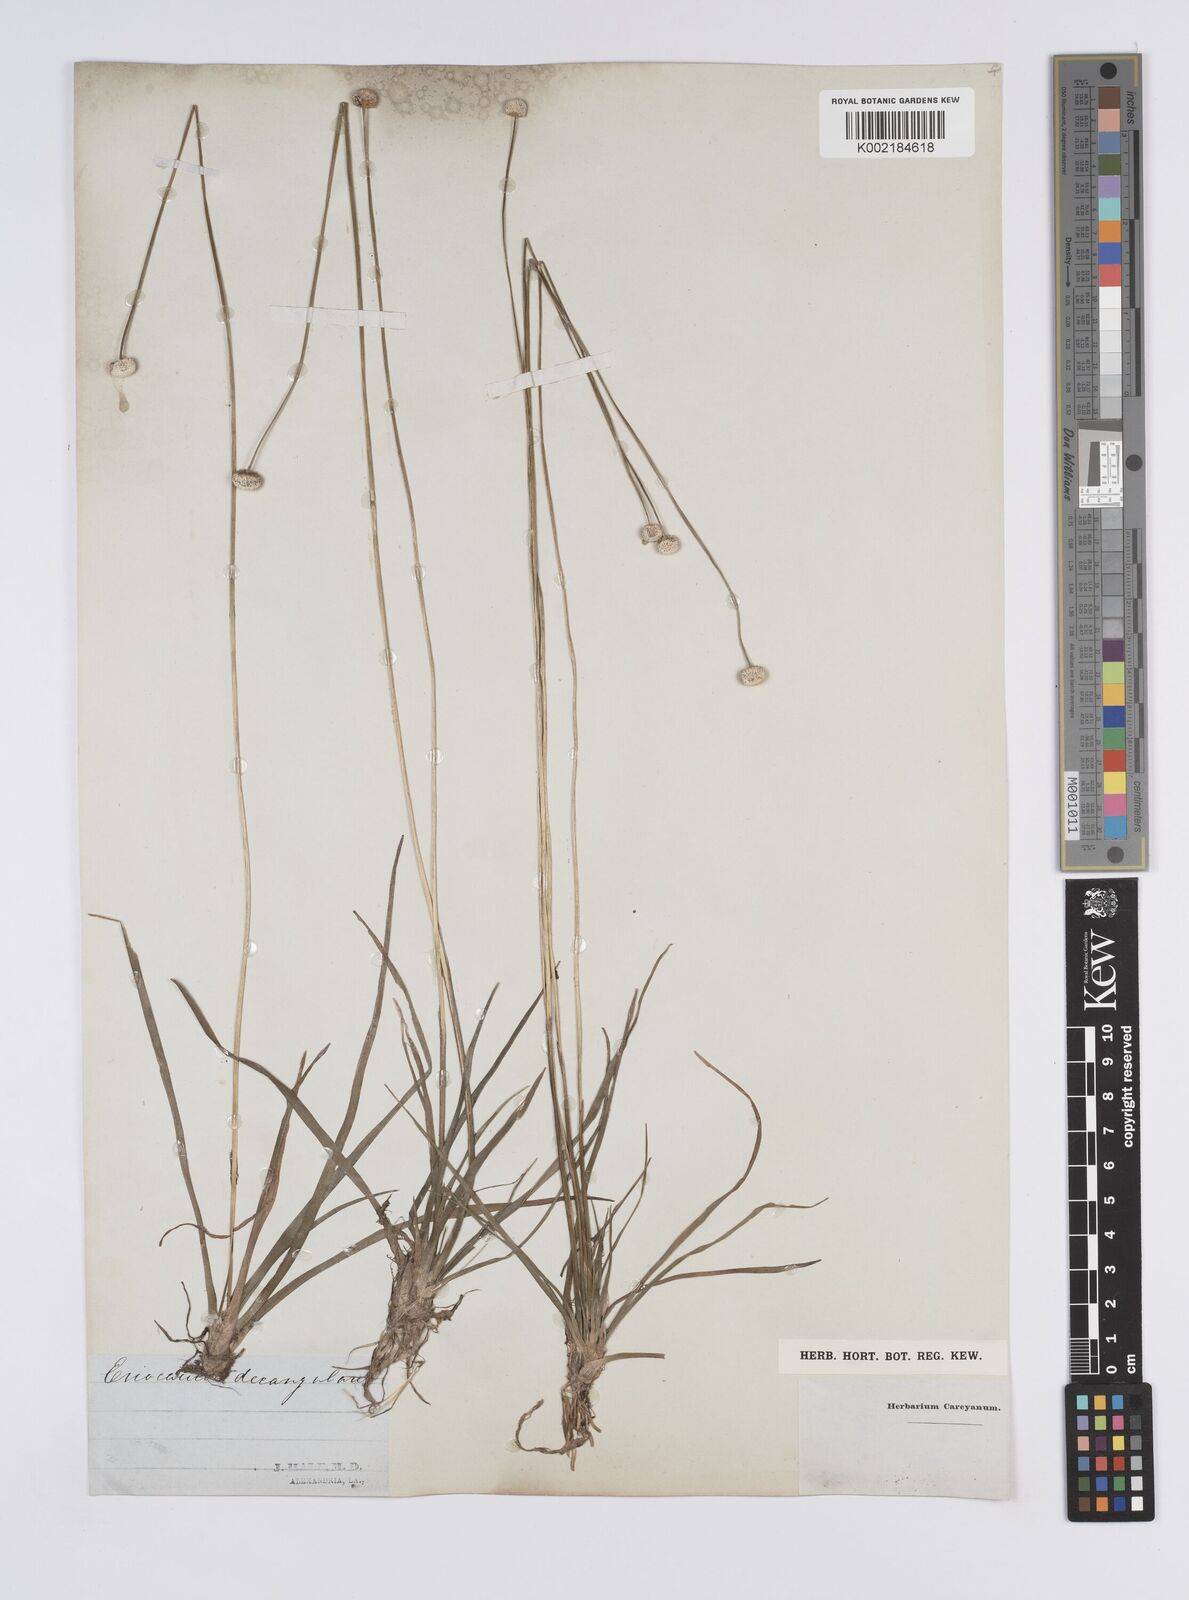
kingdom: Plantae
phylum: Tracheophyta
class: Liliopsida
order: Poales
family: Eriocaulaceae
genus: Eriocaulon
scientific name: Eriocaulon decangulare
